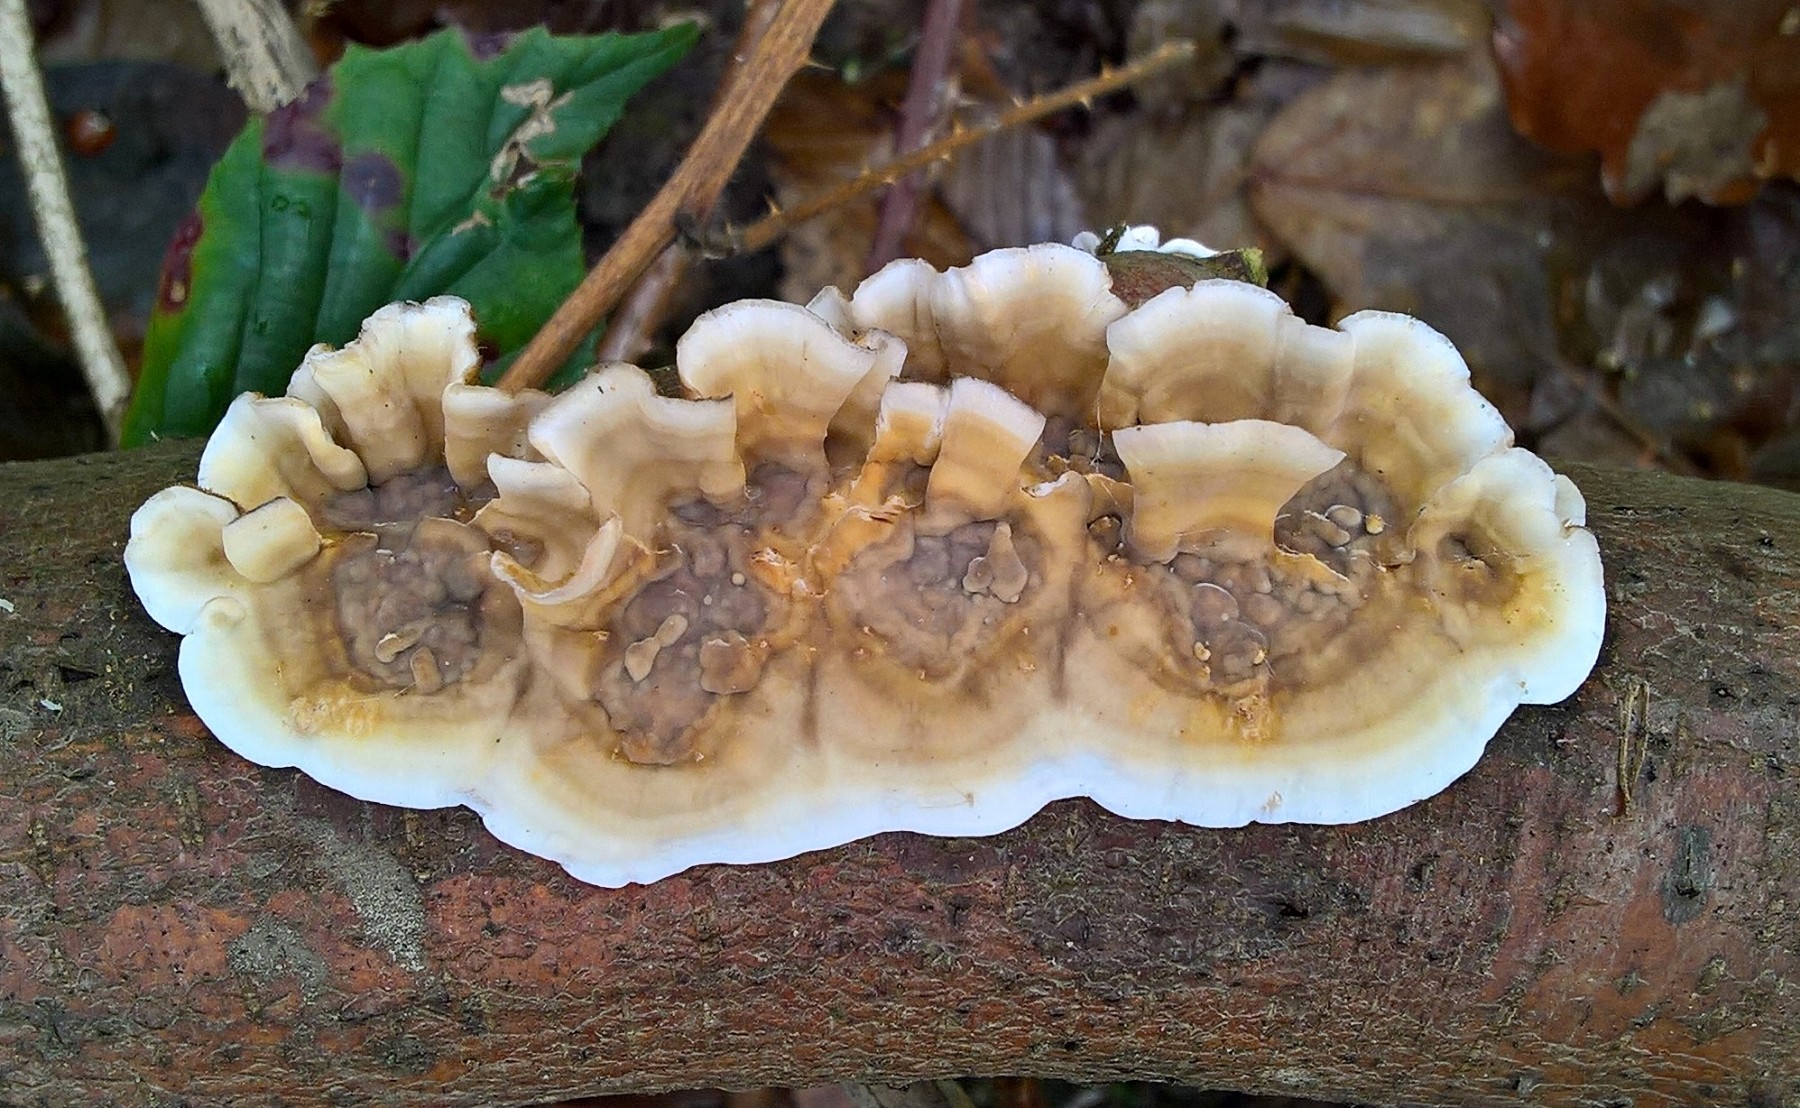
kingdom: Fungi
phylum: Basidiomycota
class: Agaricomycetes
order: Russulales
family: Stereaceae
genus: Stereum
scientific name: Stereum hirsutum
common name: håret lædersvamp
